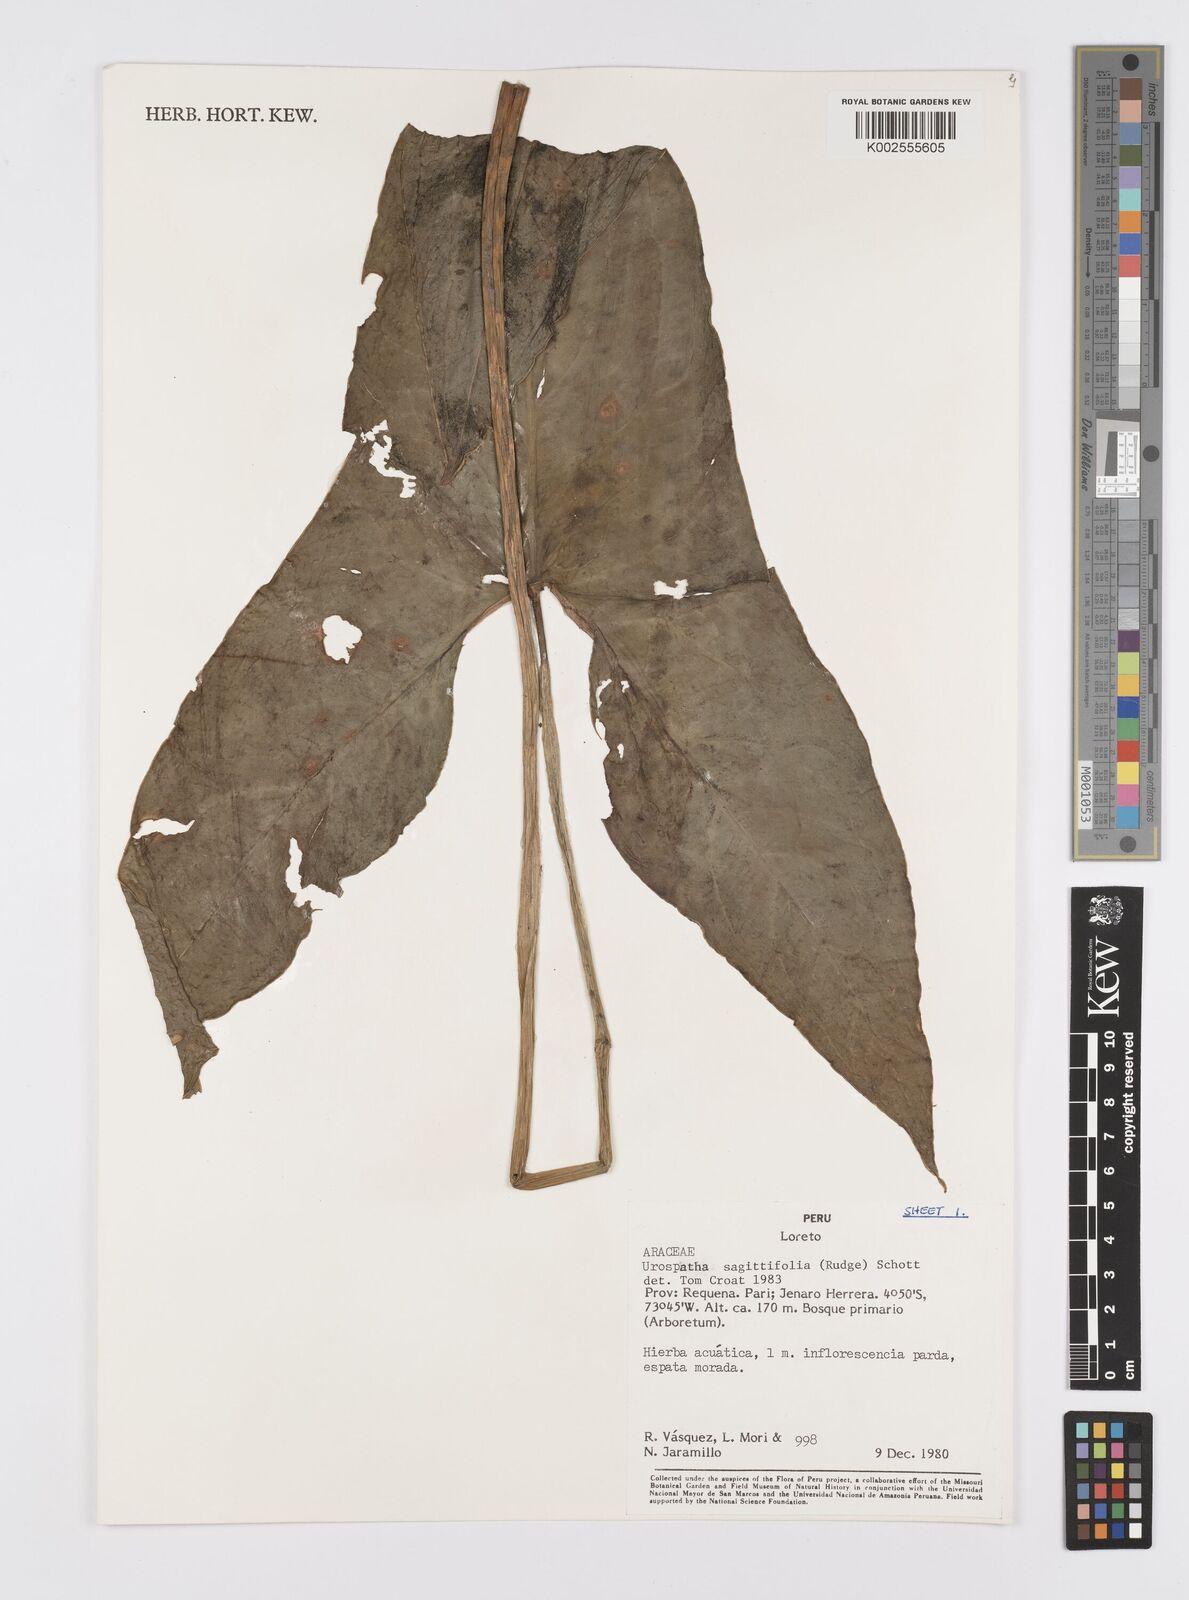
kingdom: Plantae
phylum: Tracheophyta
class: Liliopsida
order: Alismatales
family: Araceae
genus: Urospatha
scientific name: Urospatha sagittifolia
